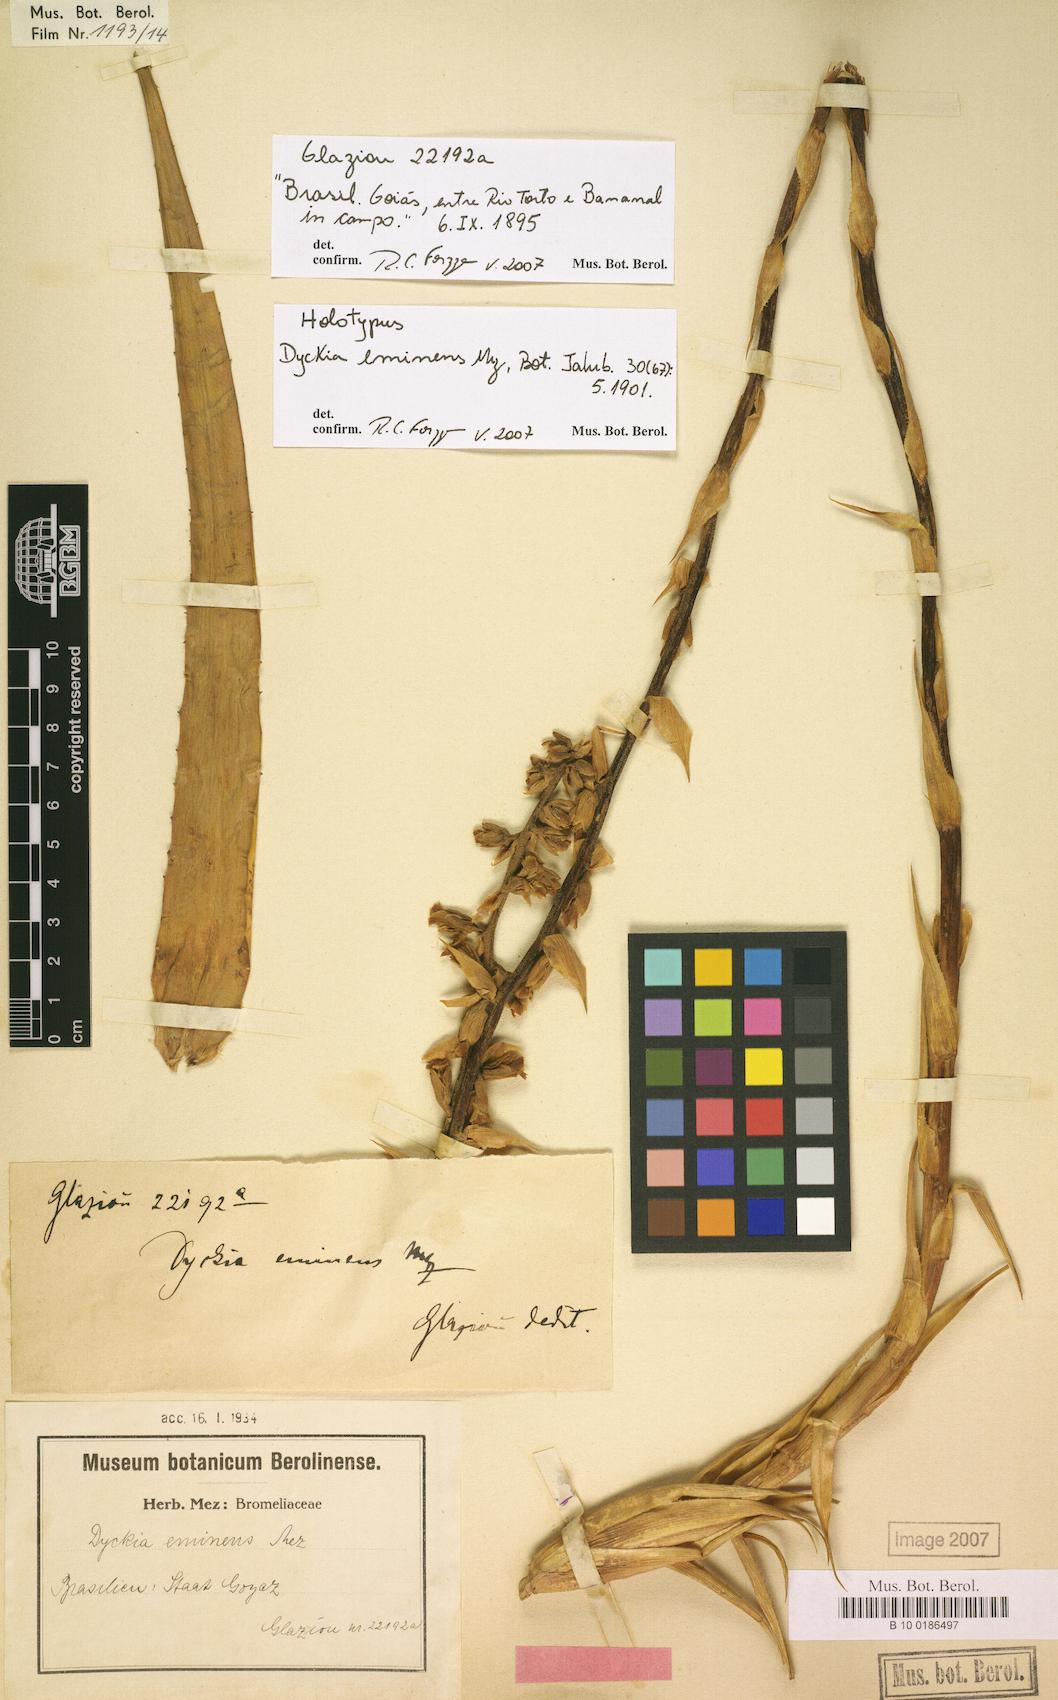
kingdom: Plantae
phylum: Tracheophyta
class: Liliopsida
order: Poales
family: Bromeliaceae
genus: Dyckia
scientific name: Dyckia eminens
